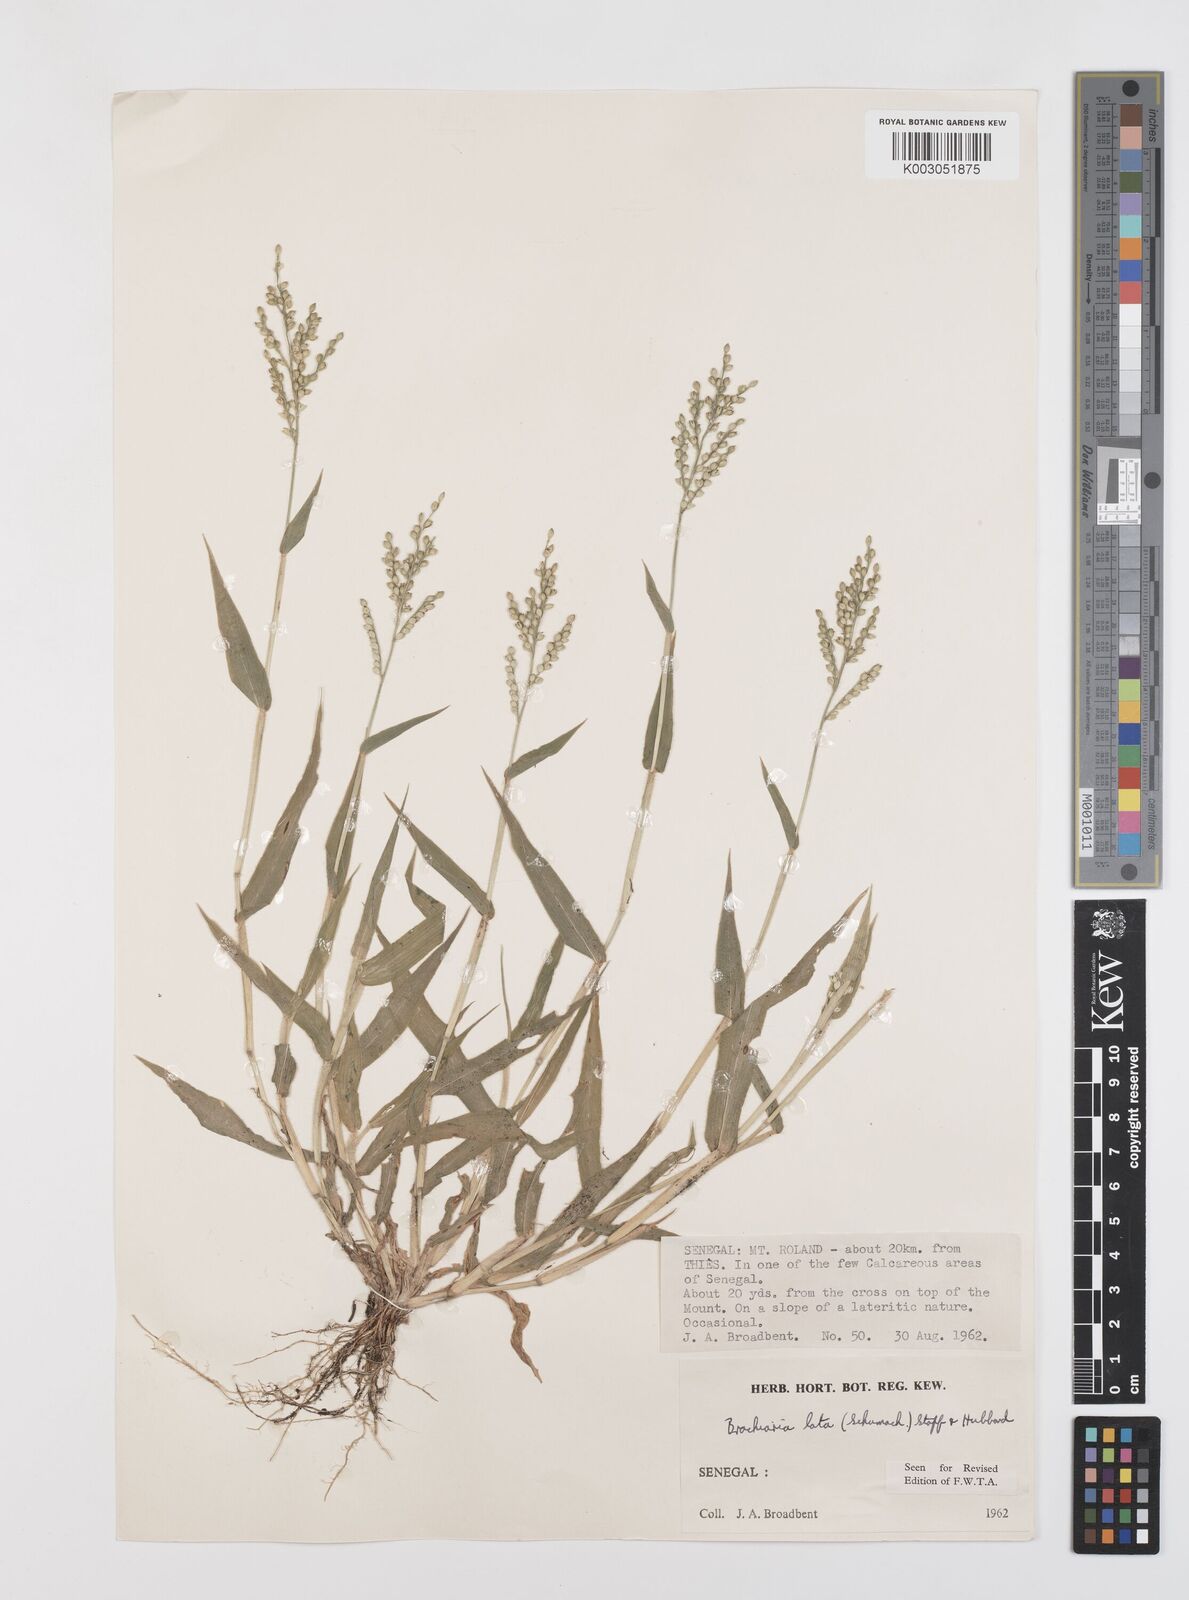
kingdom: Plantae
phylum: Tracheophyta
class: Liliopsida
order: Poales
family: Poaceae
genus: Urochloa
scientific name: Urochloa lata
